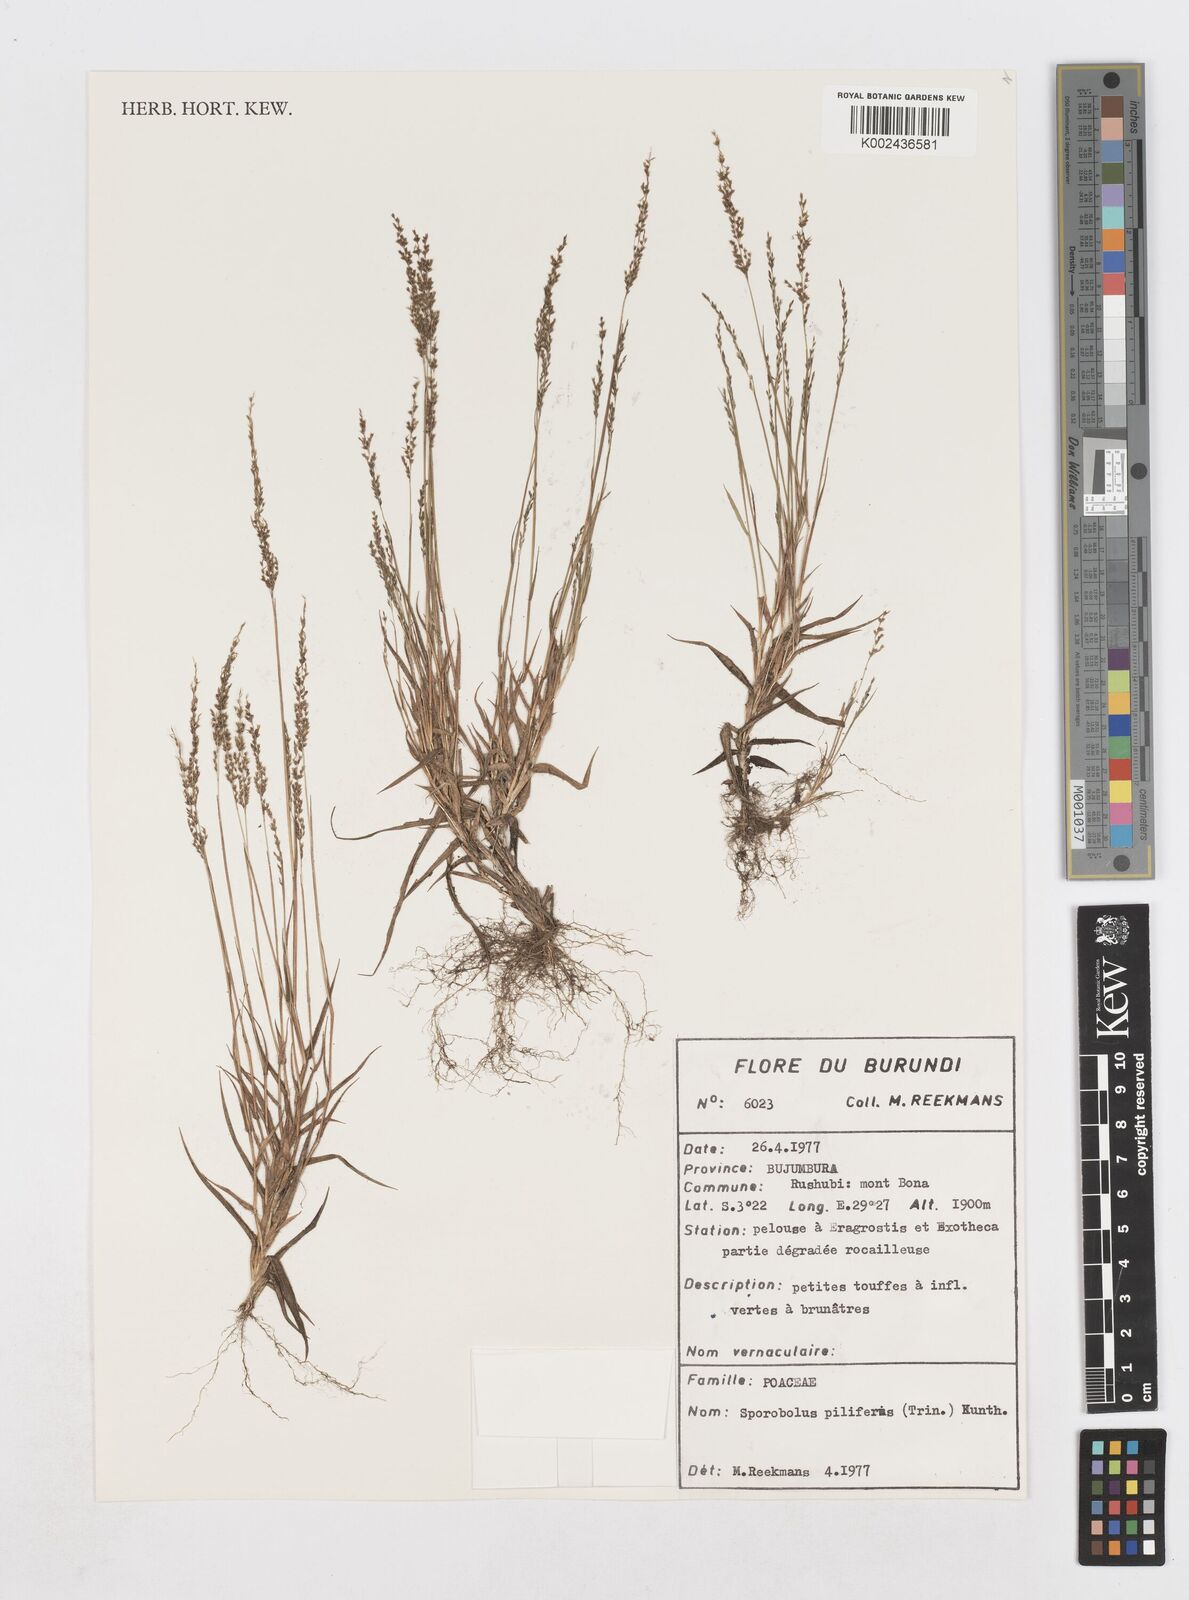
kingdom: Plantae
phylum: Tracheophyta
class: Liliopsida
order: Poales
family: Poaceae
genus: Sporobolus
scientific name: Sporobolus pilifer
